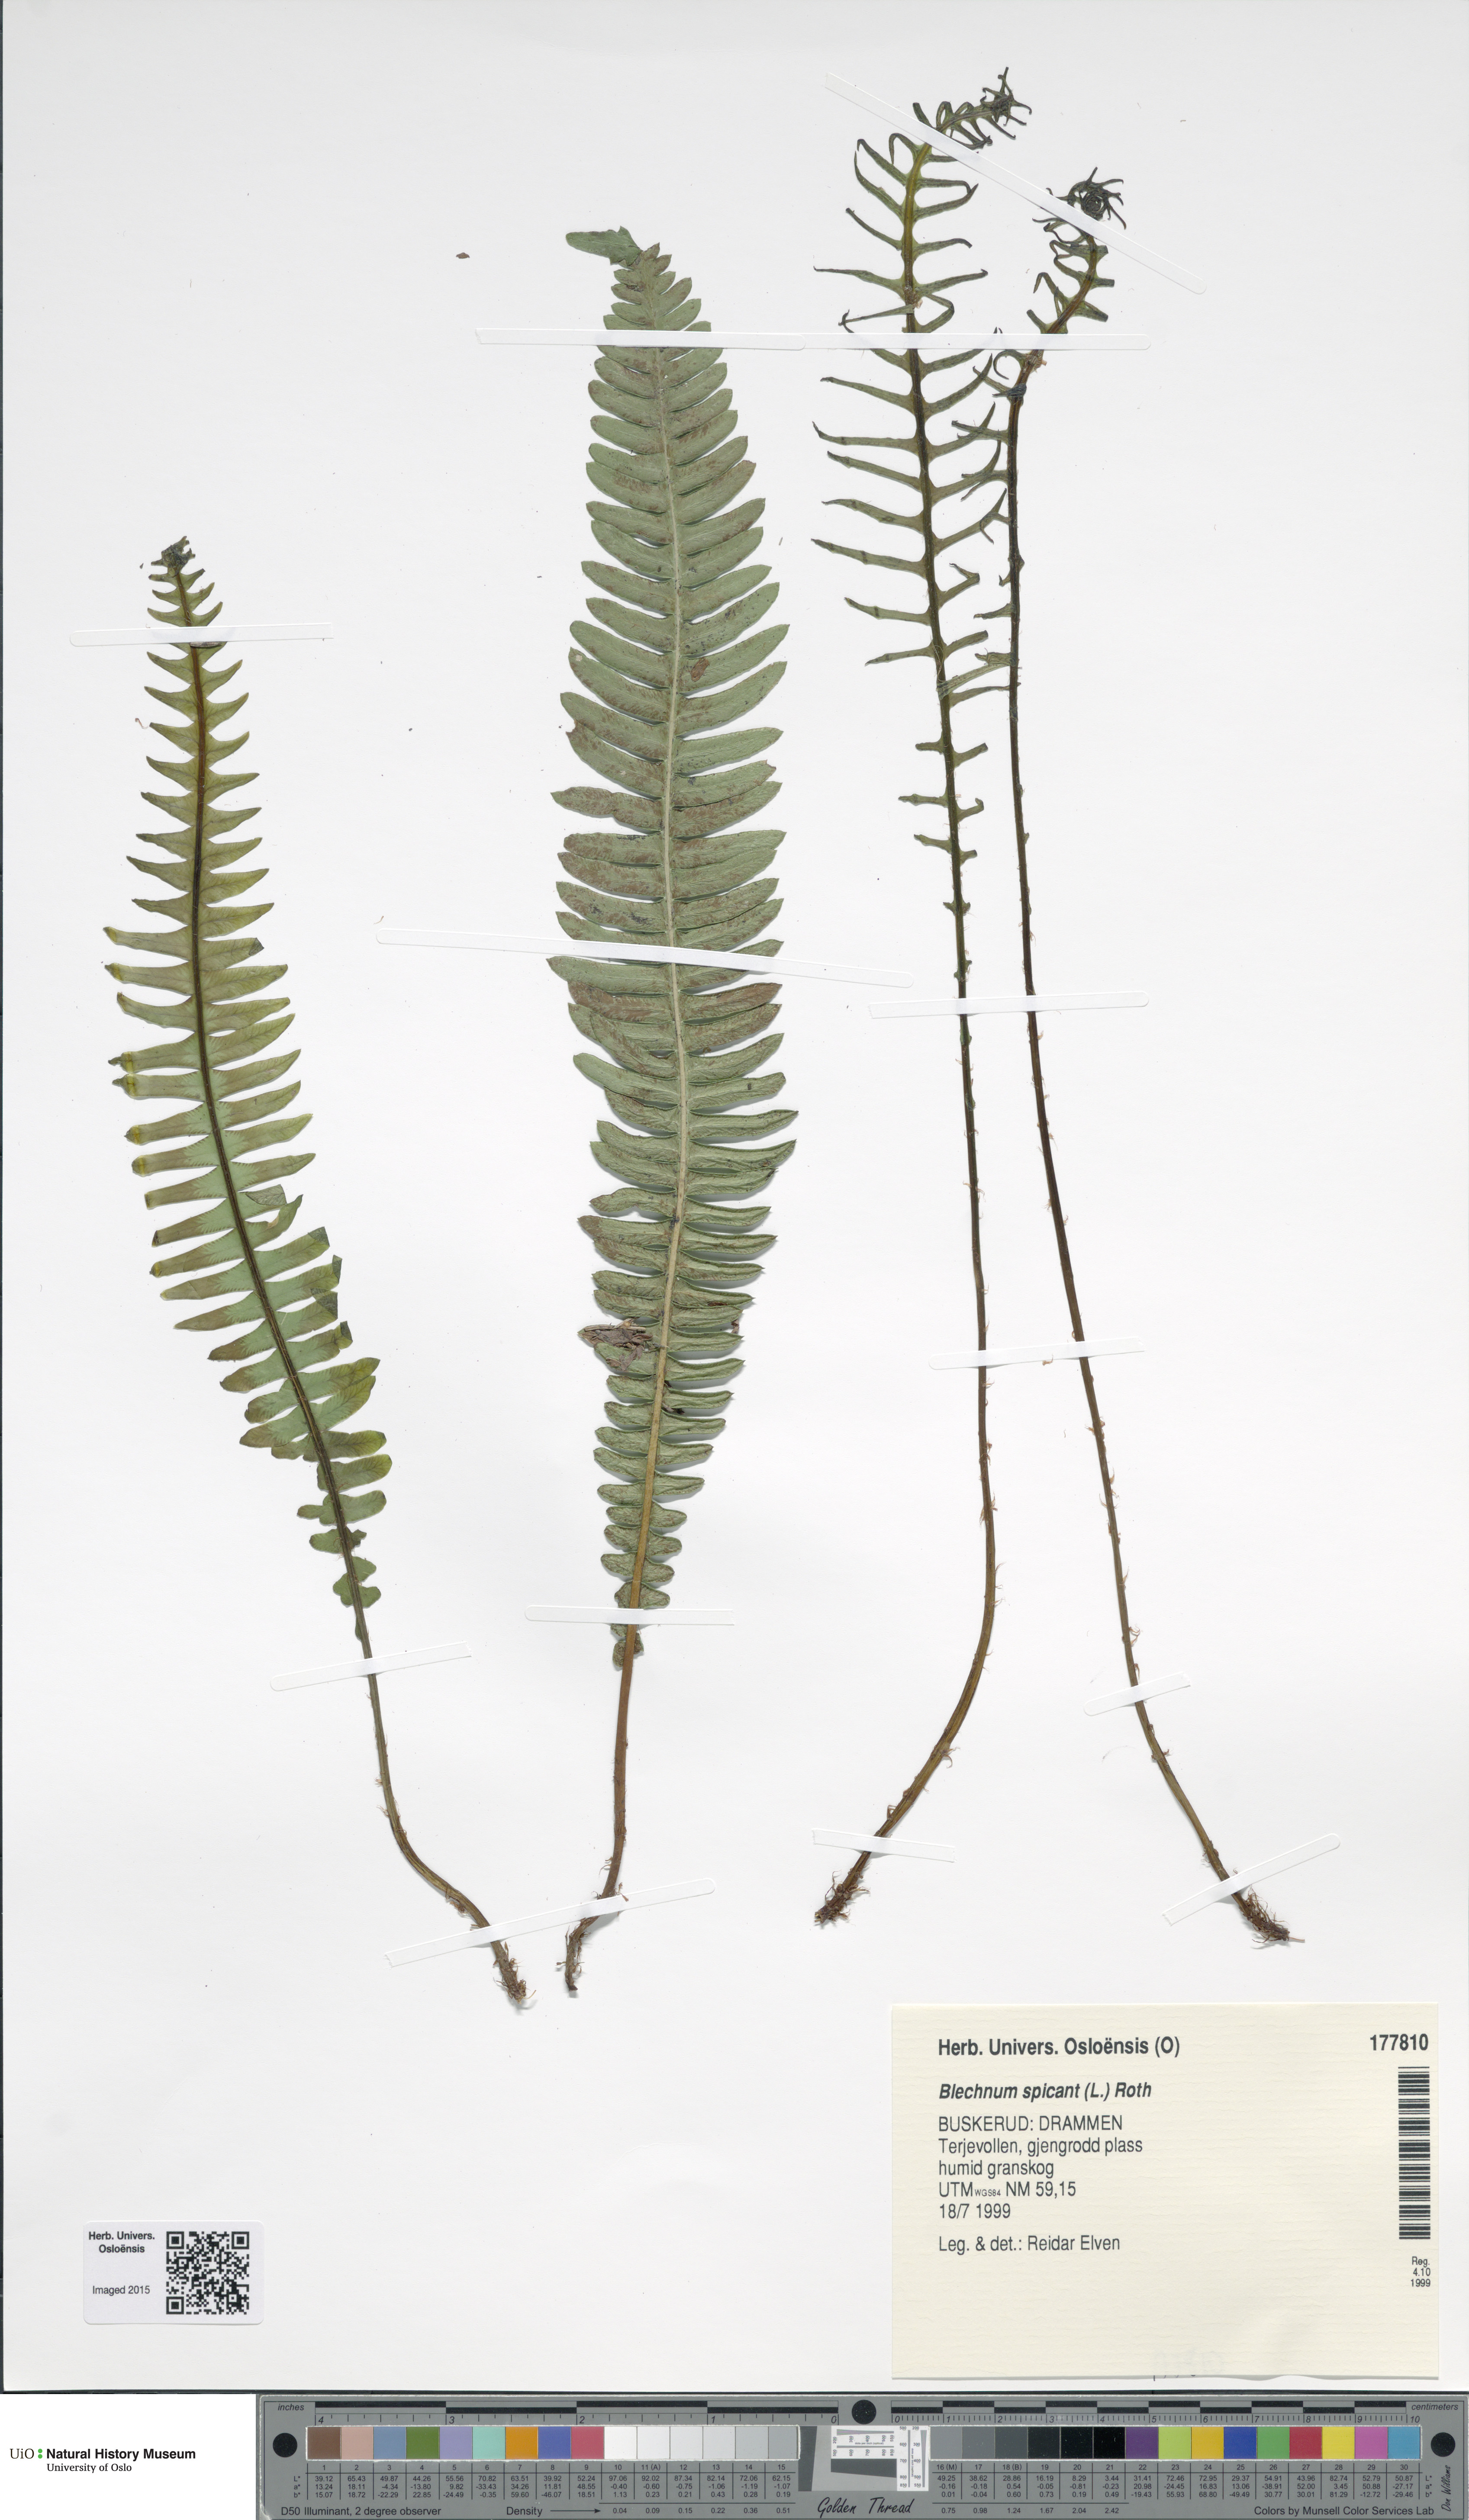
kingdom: Plantae
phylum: Tracheophyta
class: Polypodiopsida
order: Polypodiales
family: Blechnaceae
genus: Struthiopteris
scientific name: Struthiopteris spicant
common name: Deer fern
